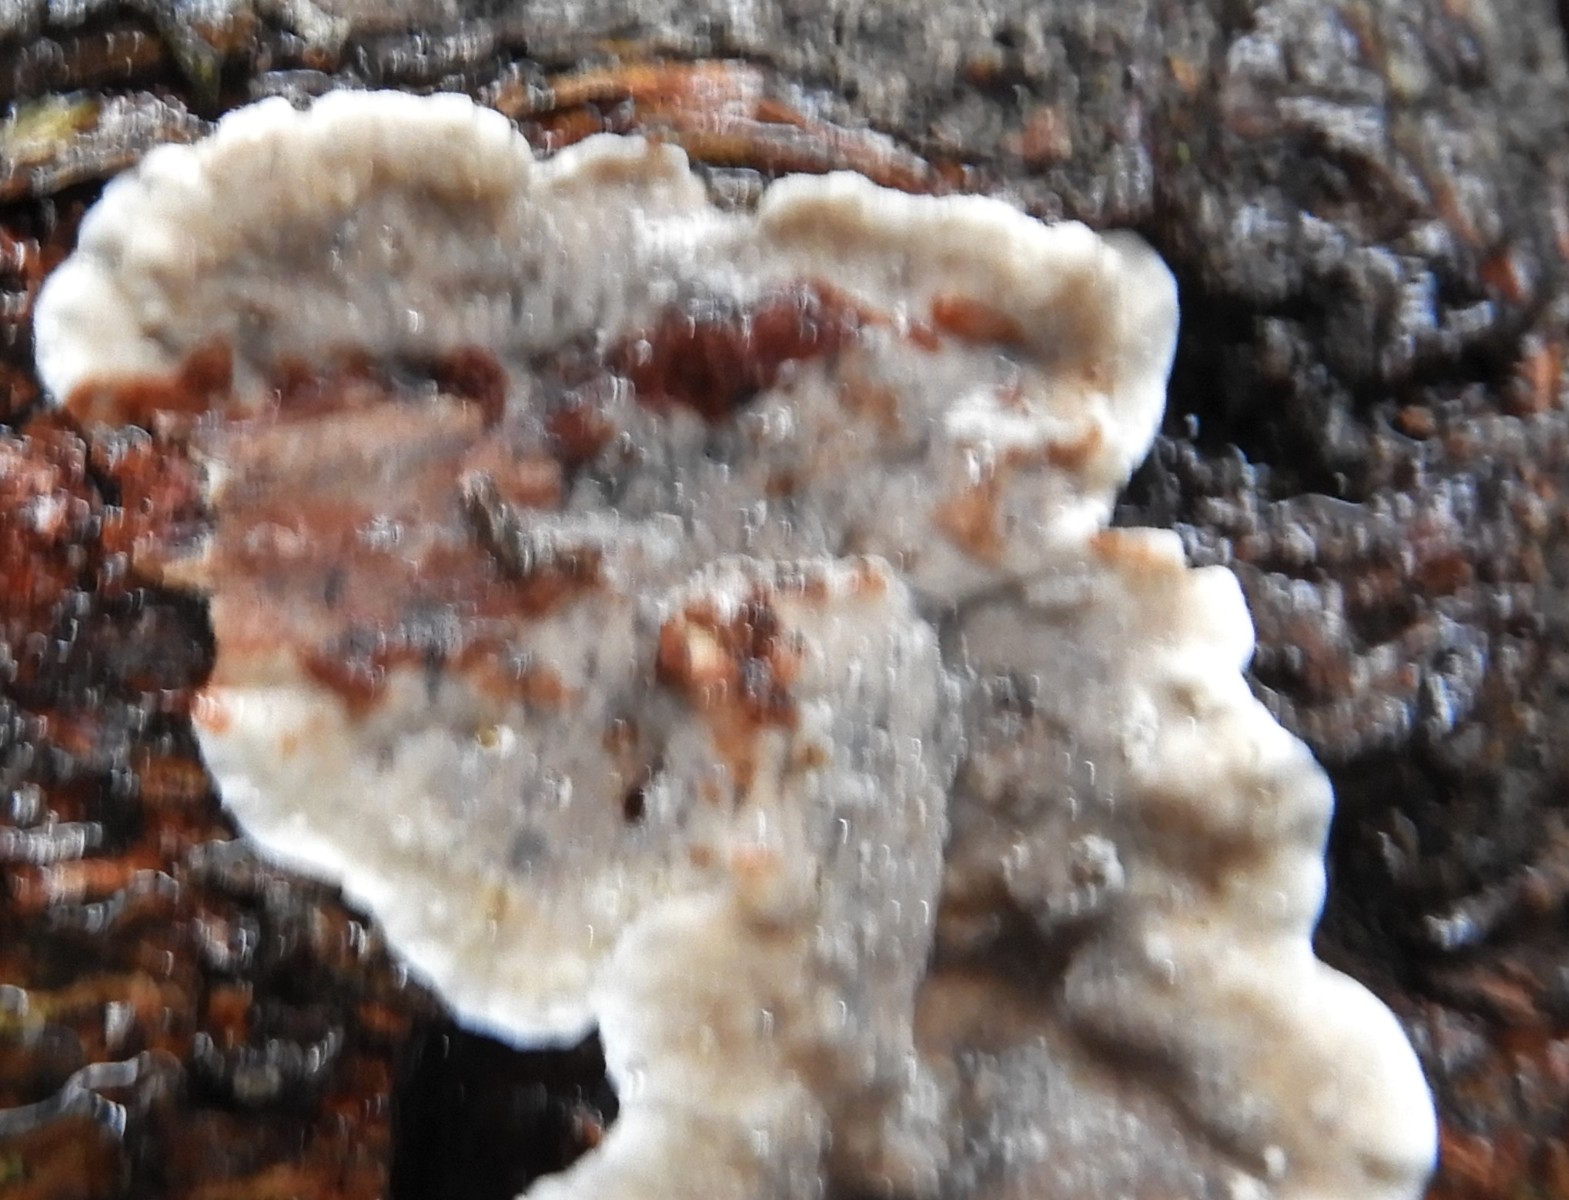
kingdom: Fungi
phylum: Basidiomycota
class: Agaricomycetes
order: Russulales
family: Stereaceae
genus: Stereum
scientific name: Stereum sanguinolentum
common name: blødende lædersvamp
